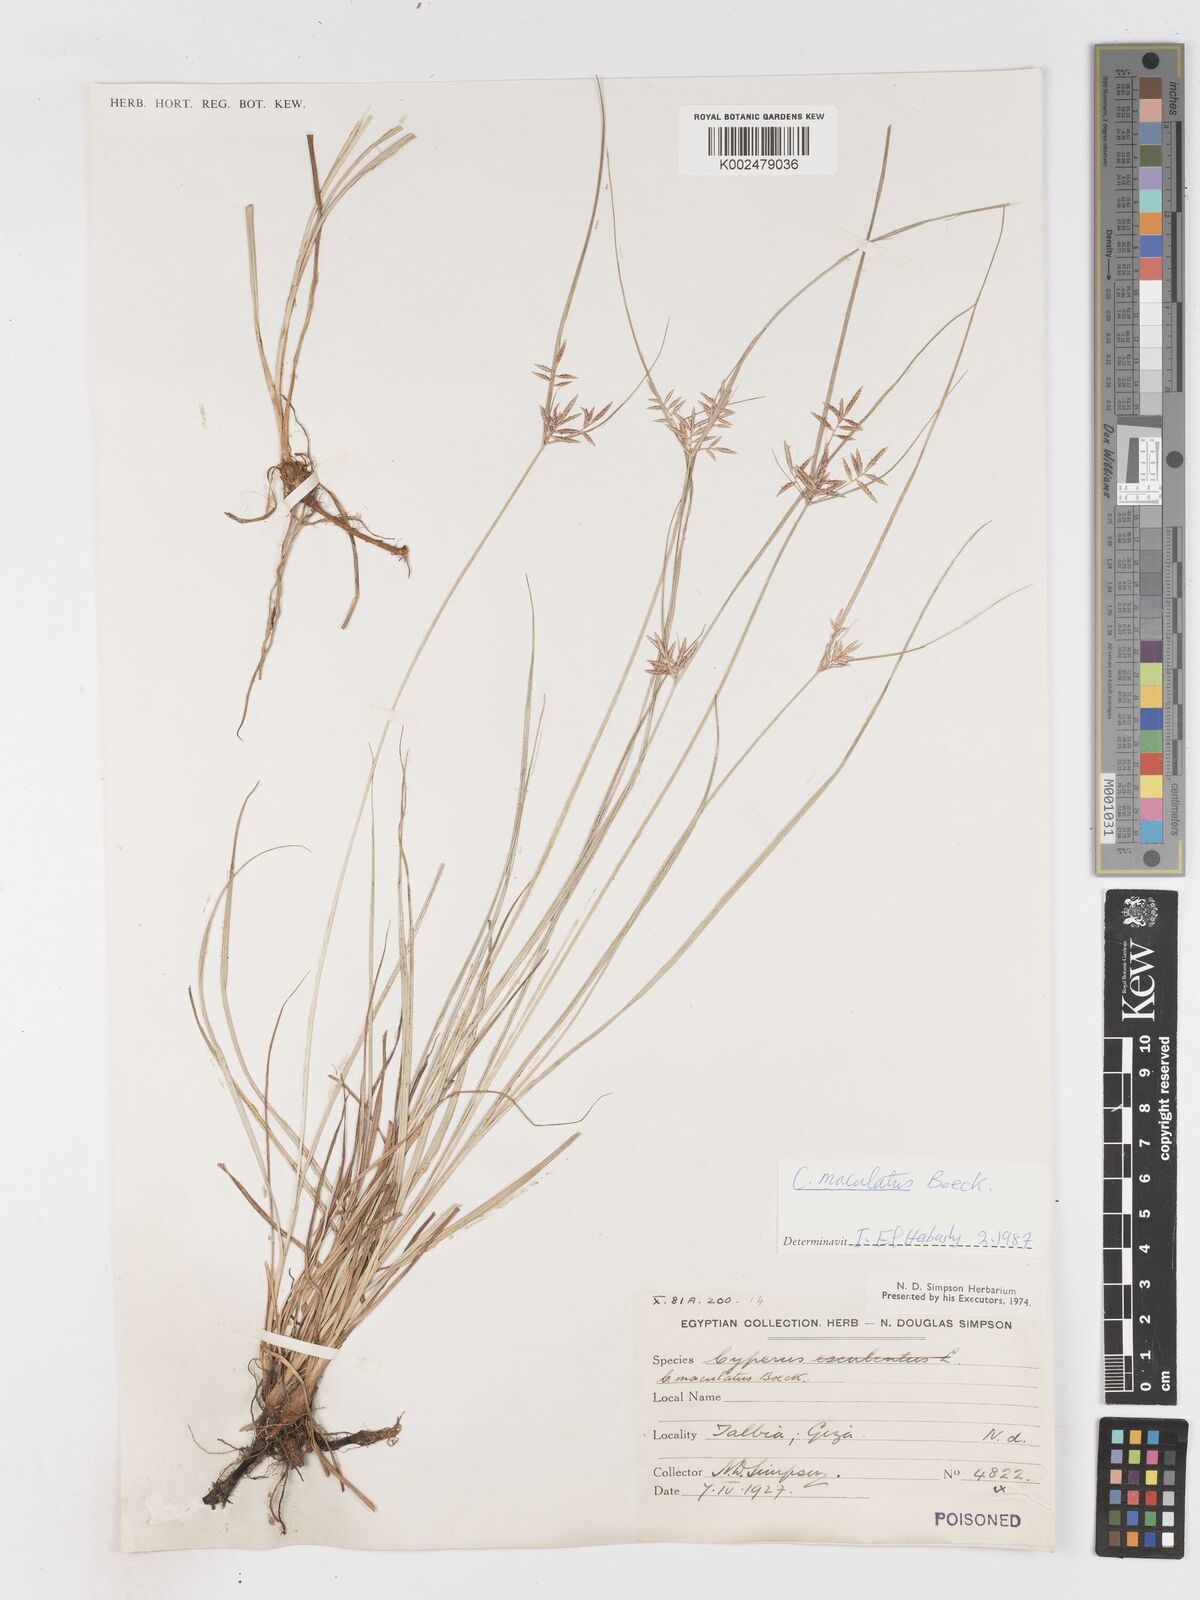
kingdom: Plantae
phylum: Tracheophyta
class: Liliopsida
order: Poales
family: Cyperaceae
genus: Cyperus
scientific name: Cyperus maculatus
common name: Maculated sedge
